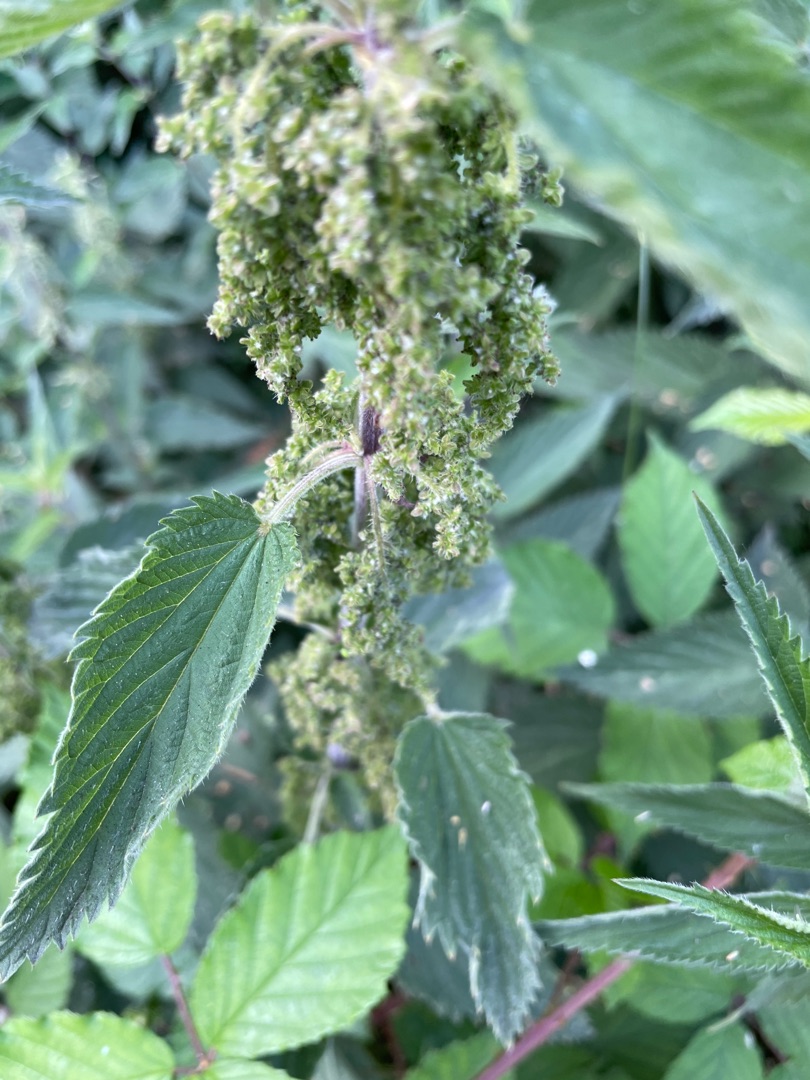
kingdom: Plantae
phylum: Tracheophyta
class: Magnoliopsida
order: Rosales
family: Urticaceae
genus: Urtica
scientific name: Urtica dioica
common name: Stor nælde
